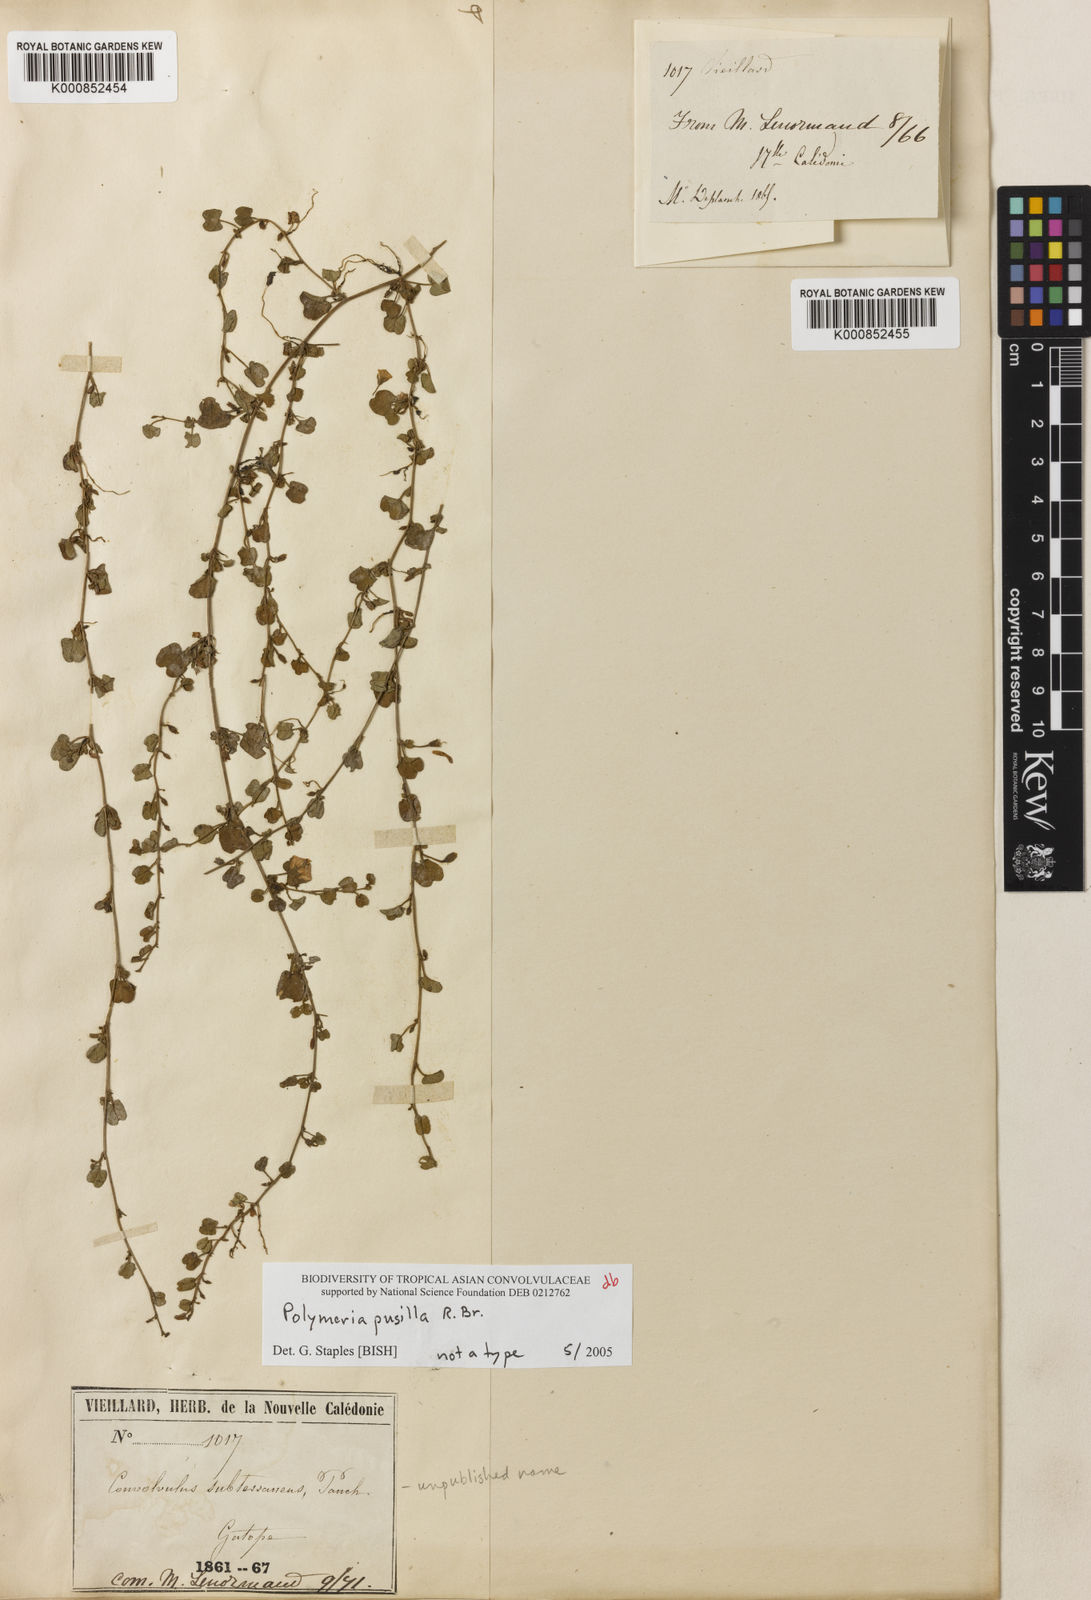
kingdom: Plantae
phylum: Tracheophyta
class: Magnoliopsida
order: Solanales
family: Convolvulaceae
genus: Polymeria
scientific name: Polymeria pusilla
